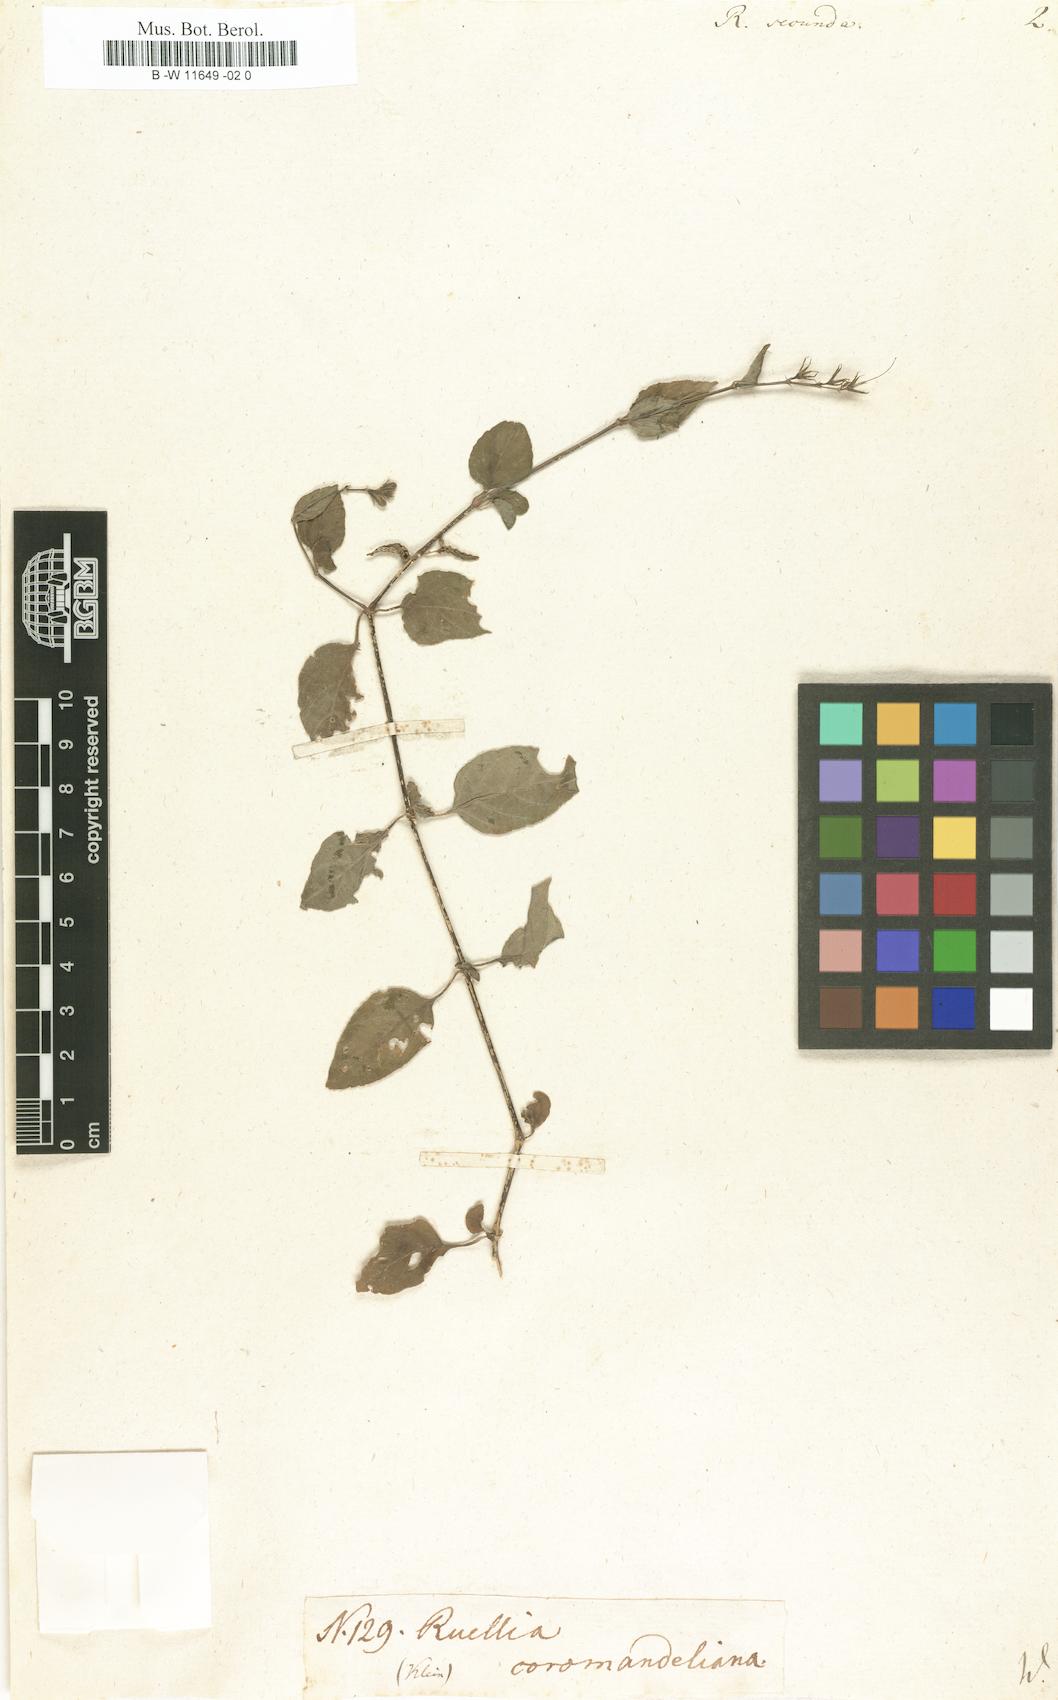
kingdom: Plantae
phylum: Tracheophyta
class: Magnoliopsida
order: Lamiales
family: Acanthaceae
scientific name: Acanthaceae
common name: Acanthaceae
